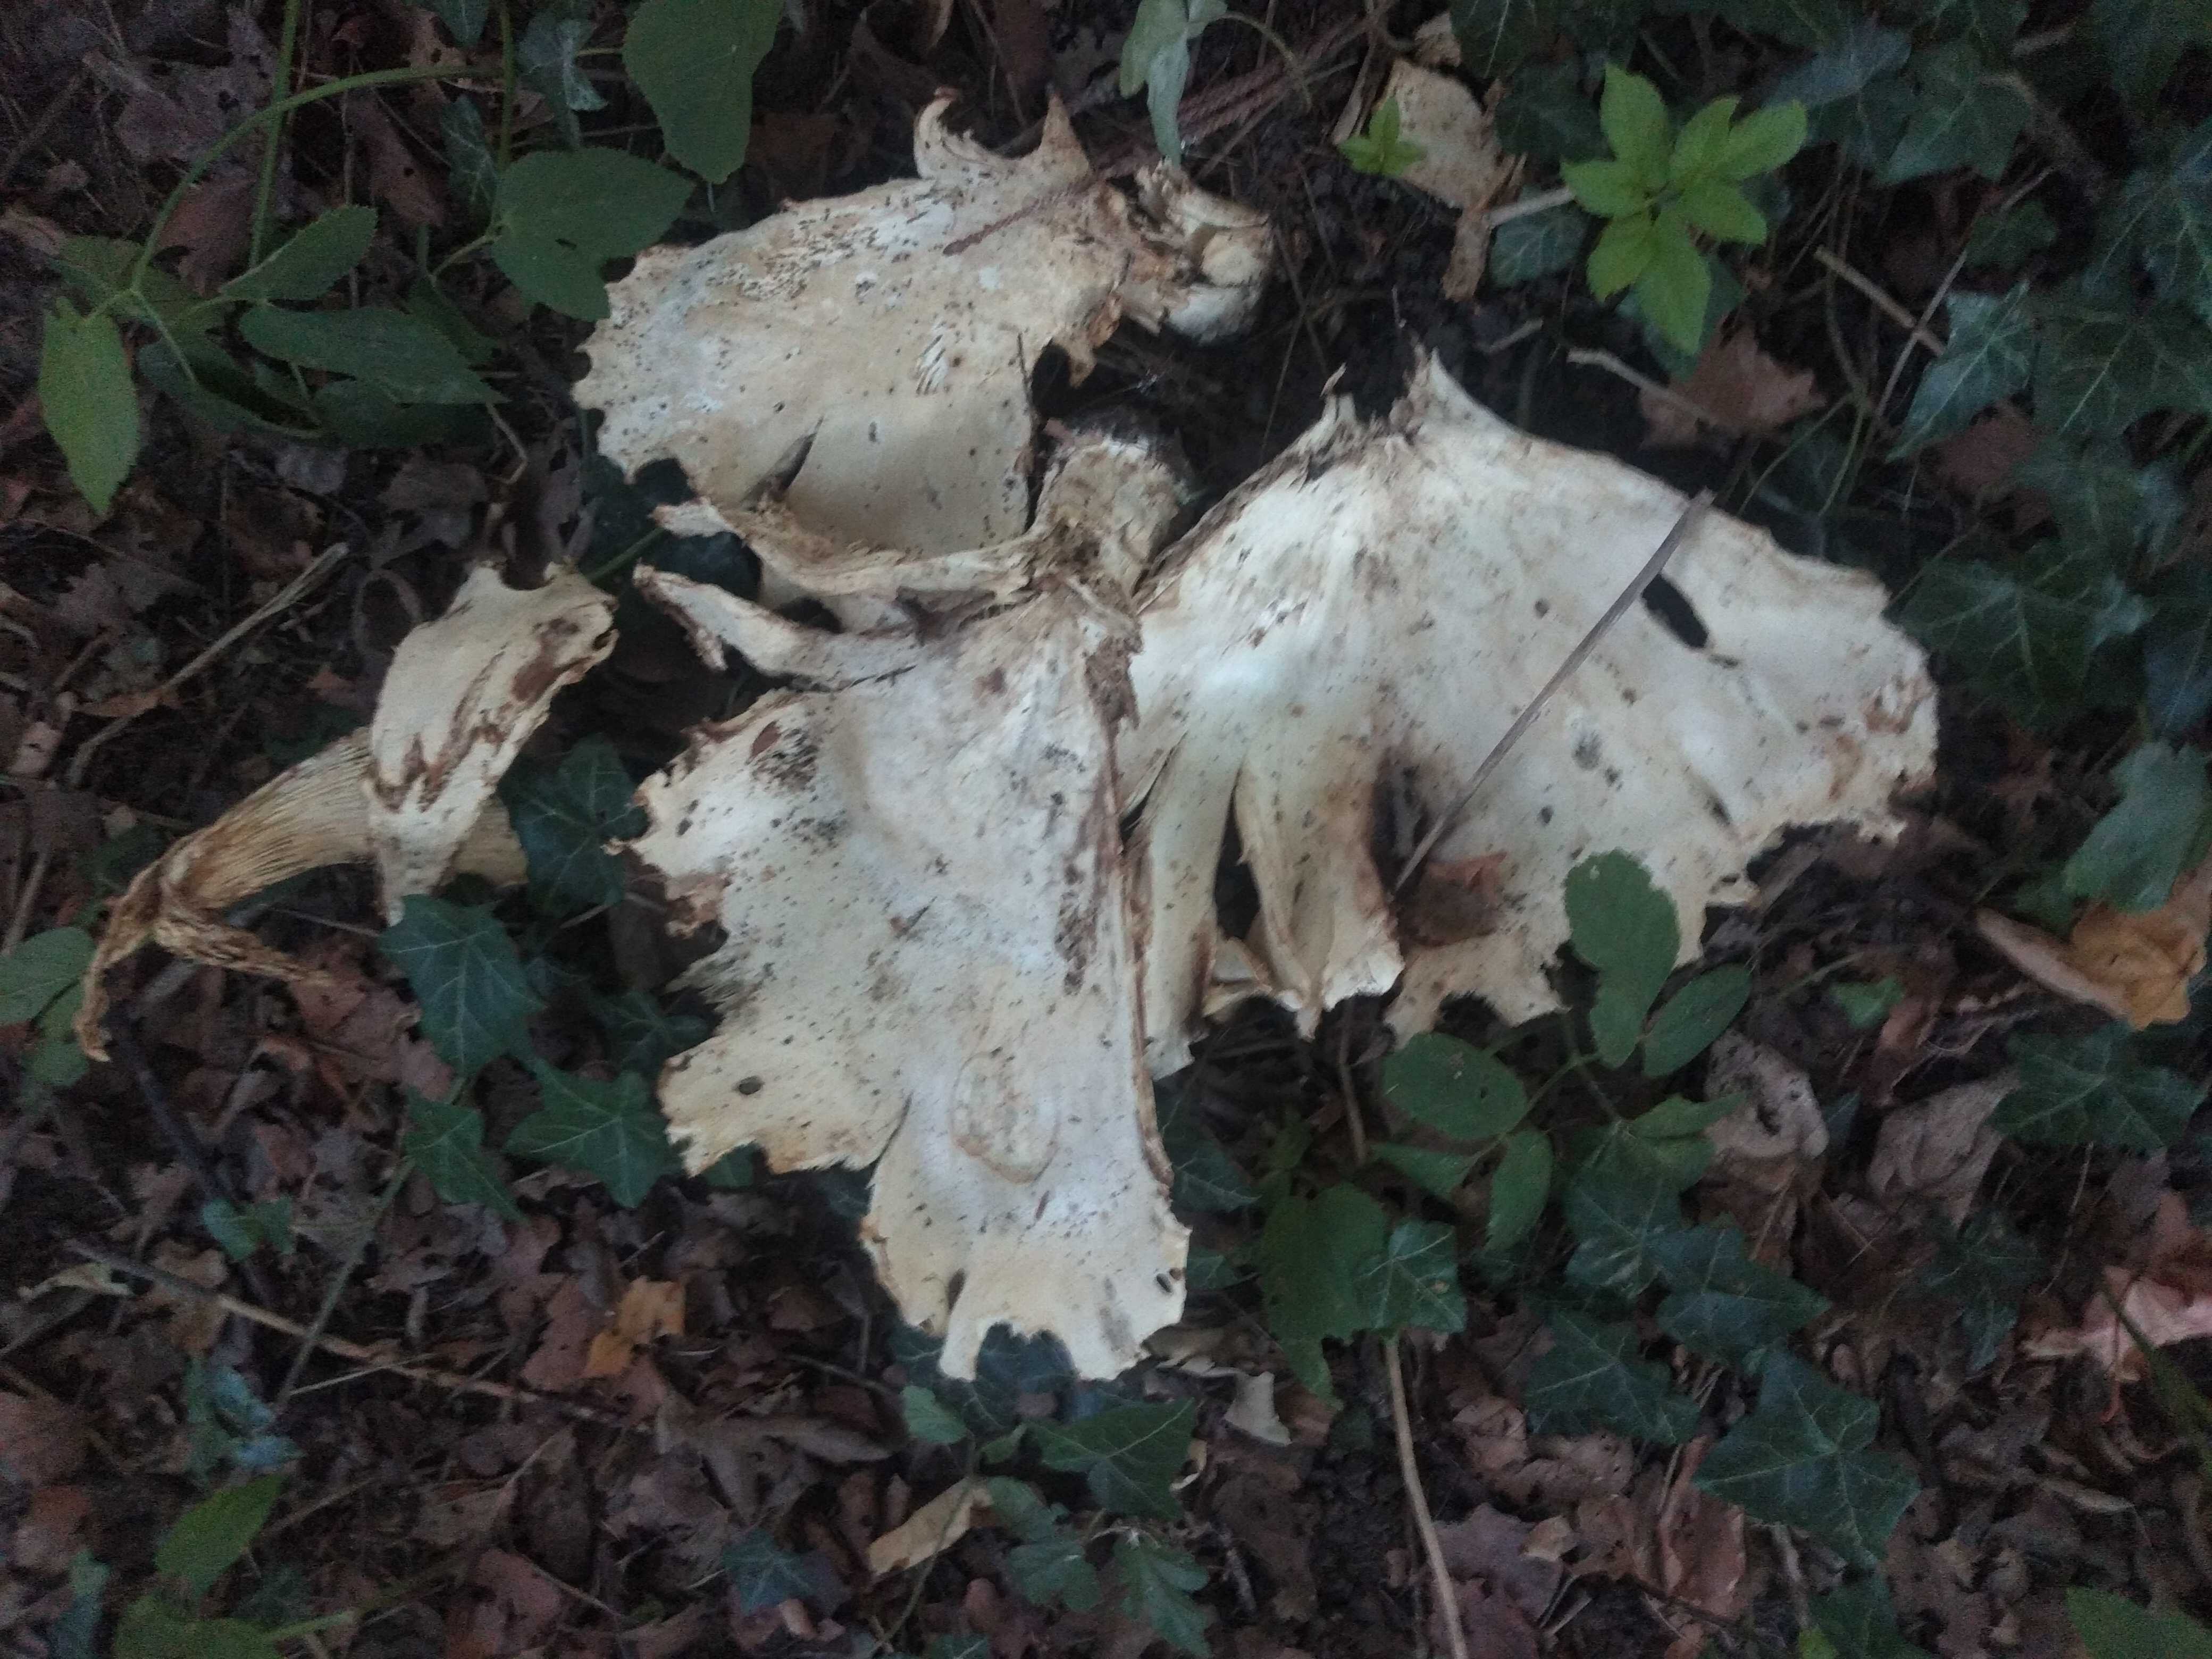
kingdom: Fungi
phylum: Basidiomycota
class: Agaricomycetes
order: Agaricales
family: Tricholomataceae
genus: Aspropaxillus
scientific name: Aspropaxillus giganteus
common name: kæmpe-tragtridderhat
